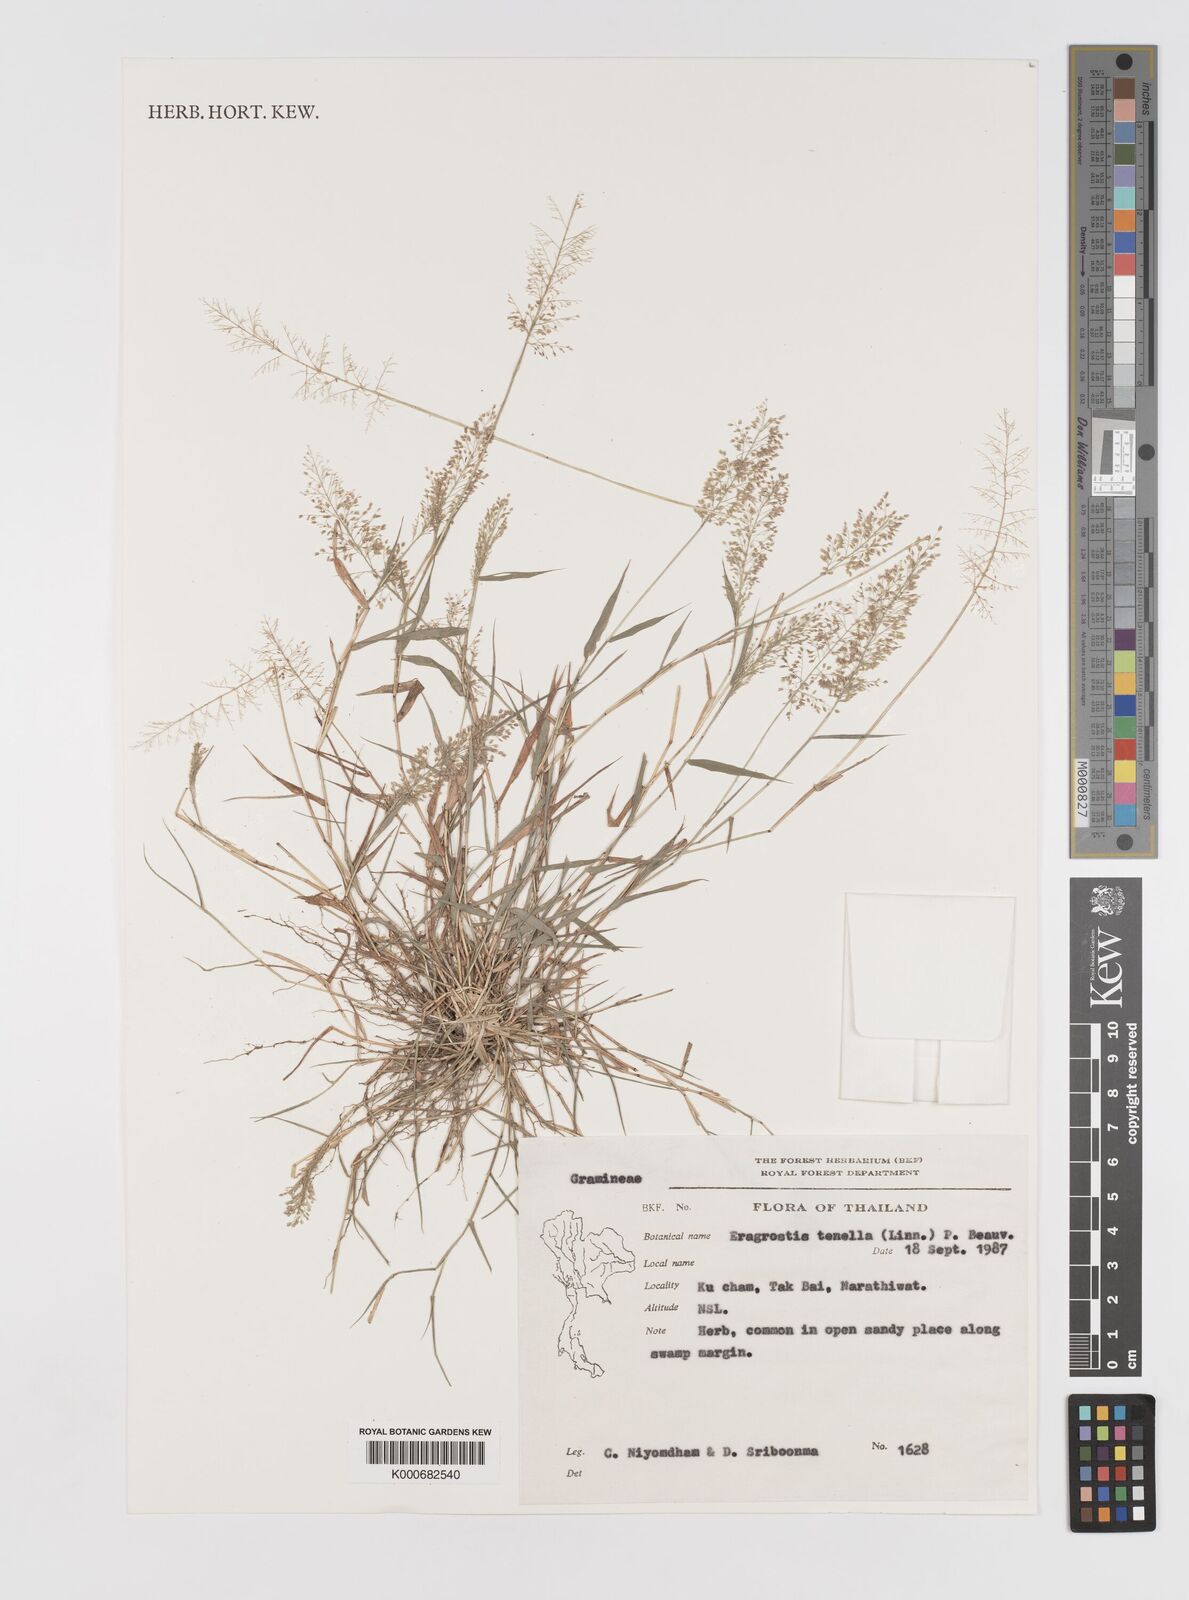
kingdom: Plantae
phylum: Tracheophyta
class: Liliopsida
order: Poales
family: Poaceae
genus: Eragrostis
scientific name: Eragrostis tenella
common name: Japanese lovegrass
